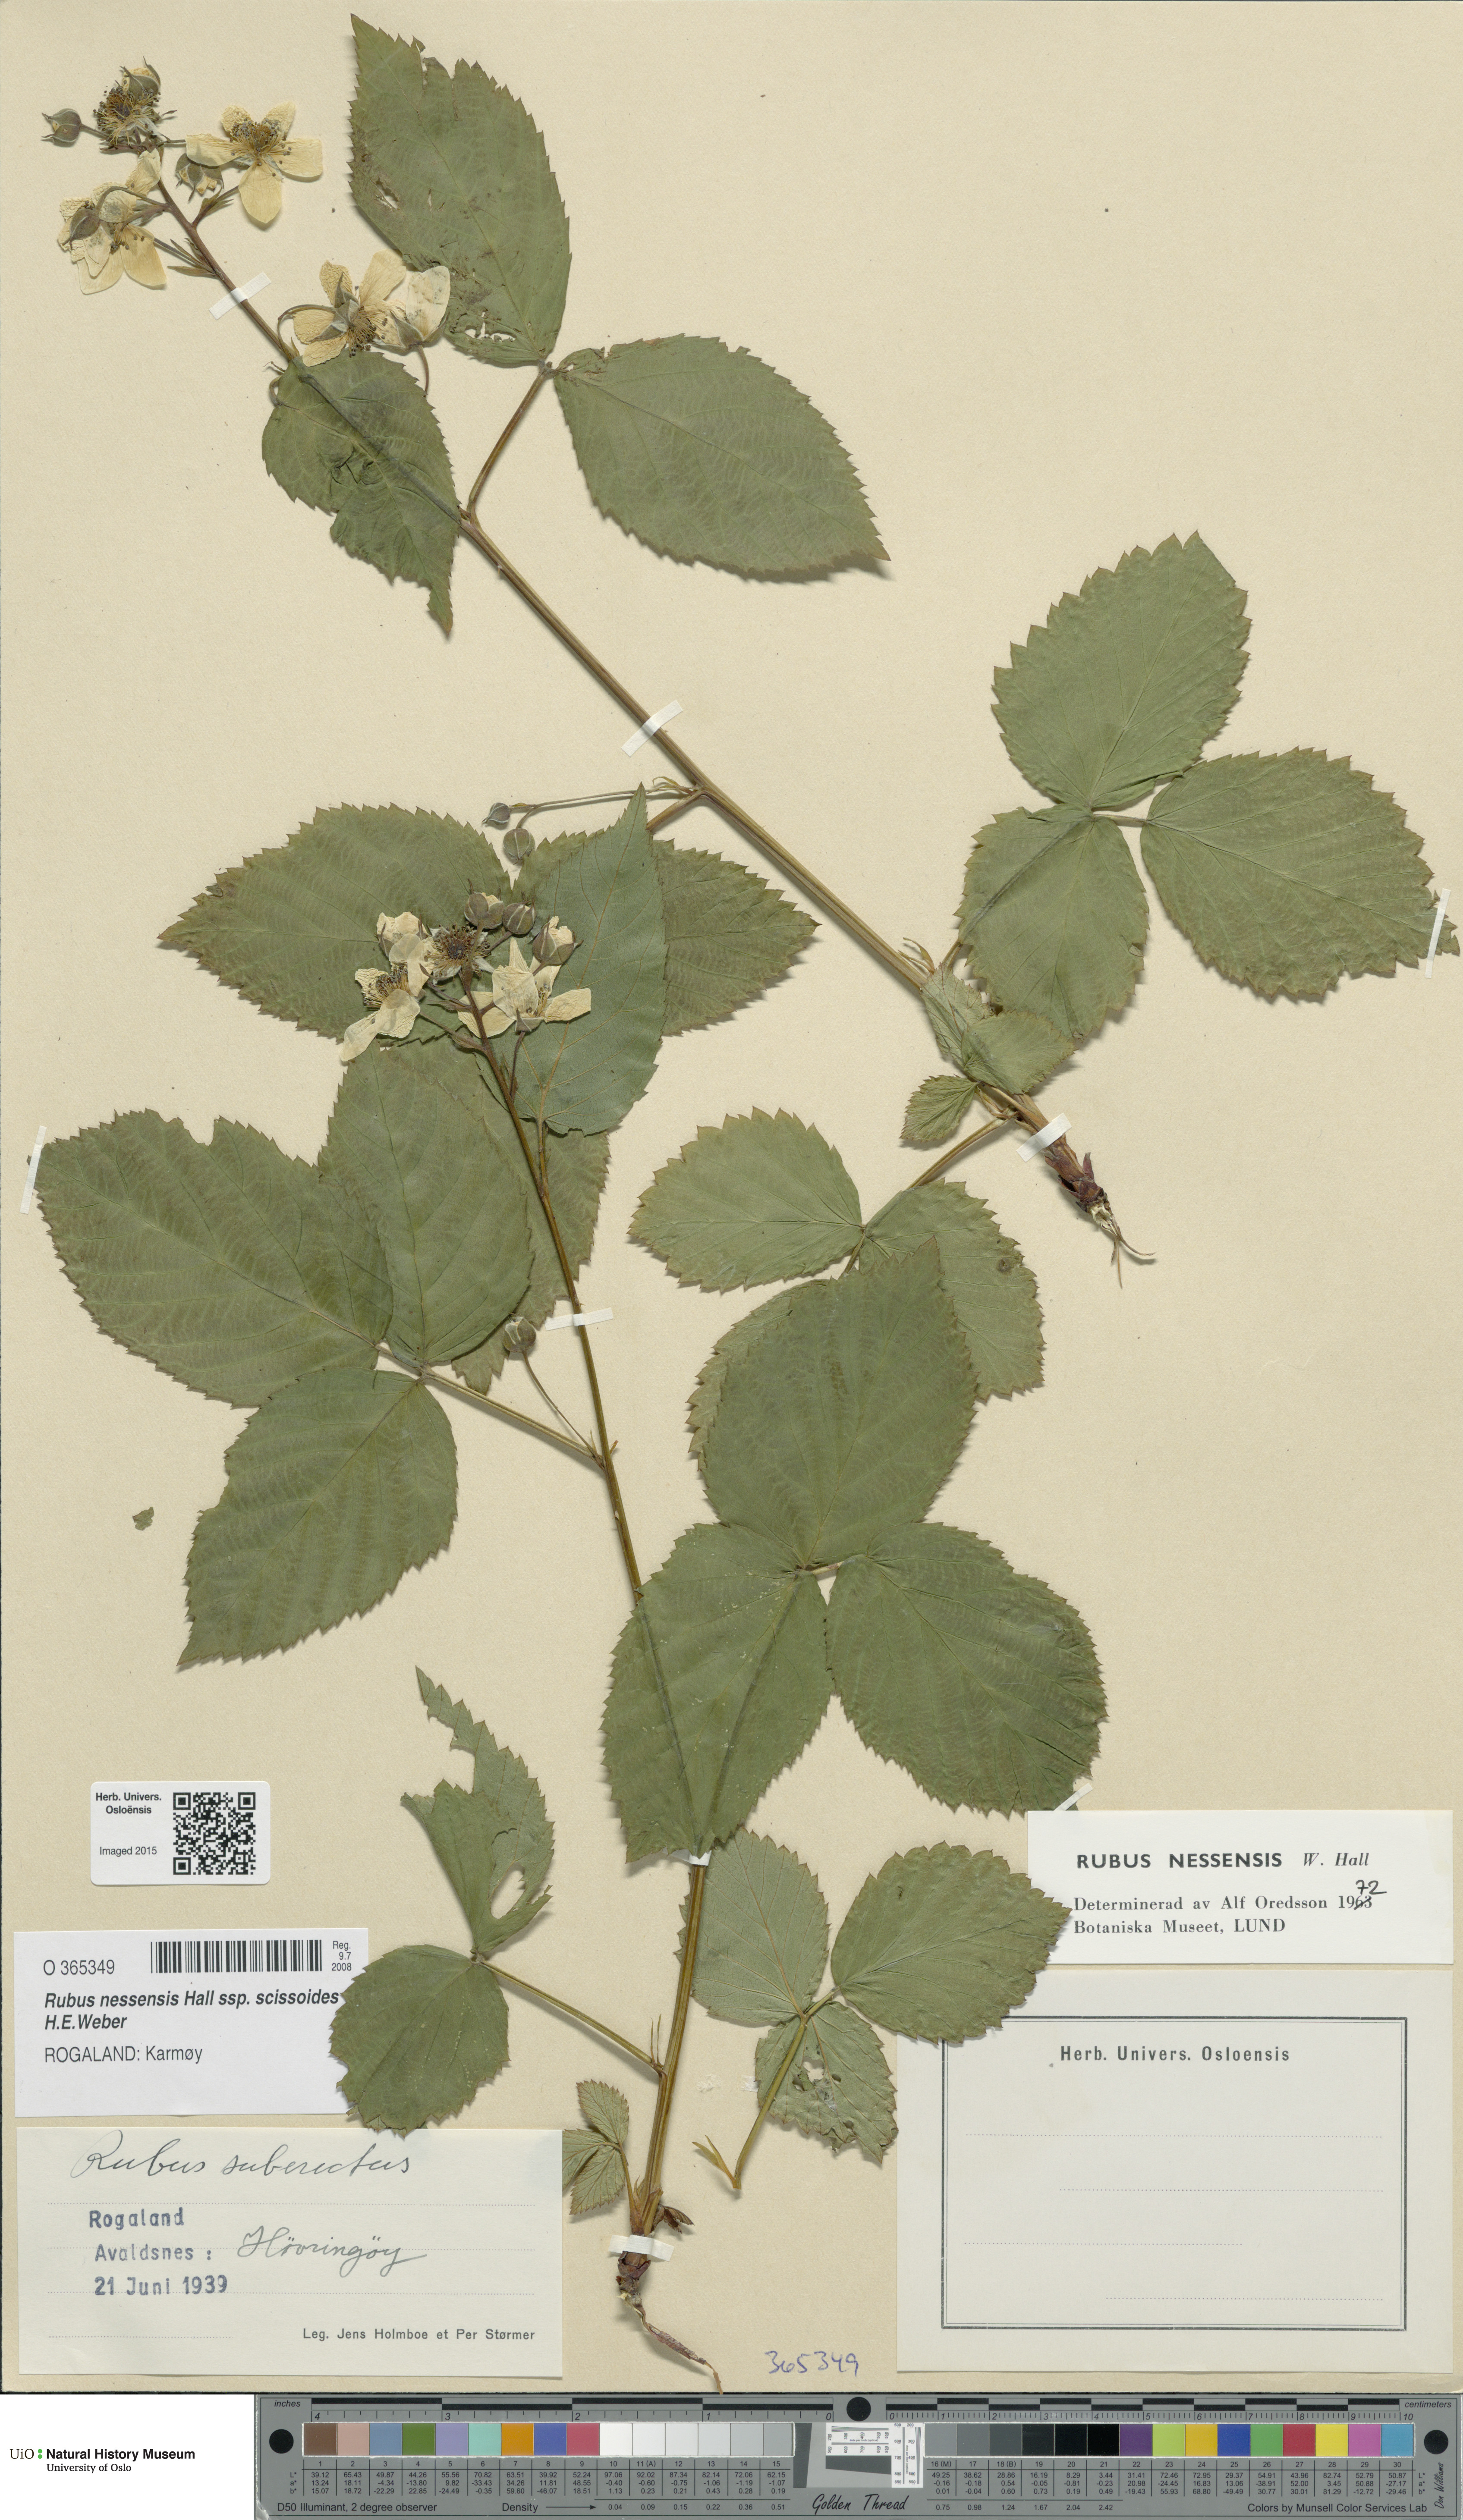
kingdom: Plantae
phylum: Tracheophyta
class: Magnoliopsida
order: Rosales
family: Rosaceae
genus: Rubus
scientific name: Rubus scissus
